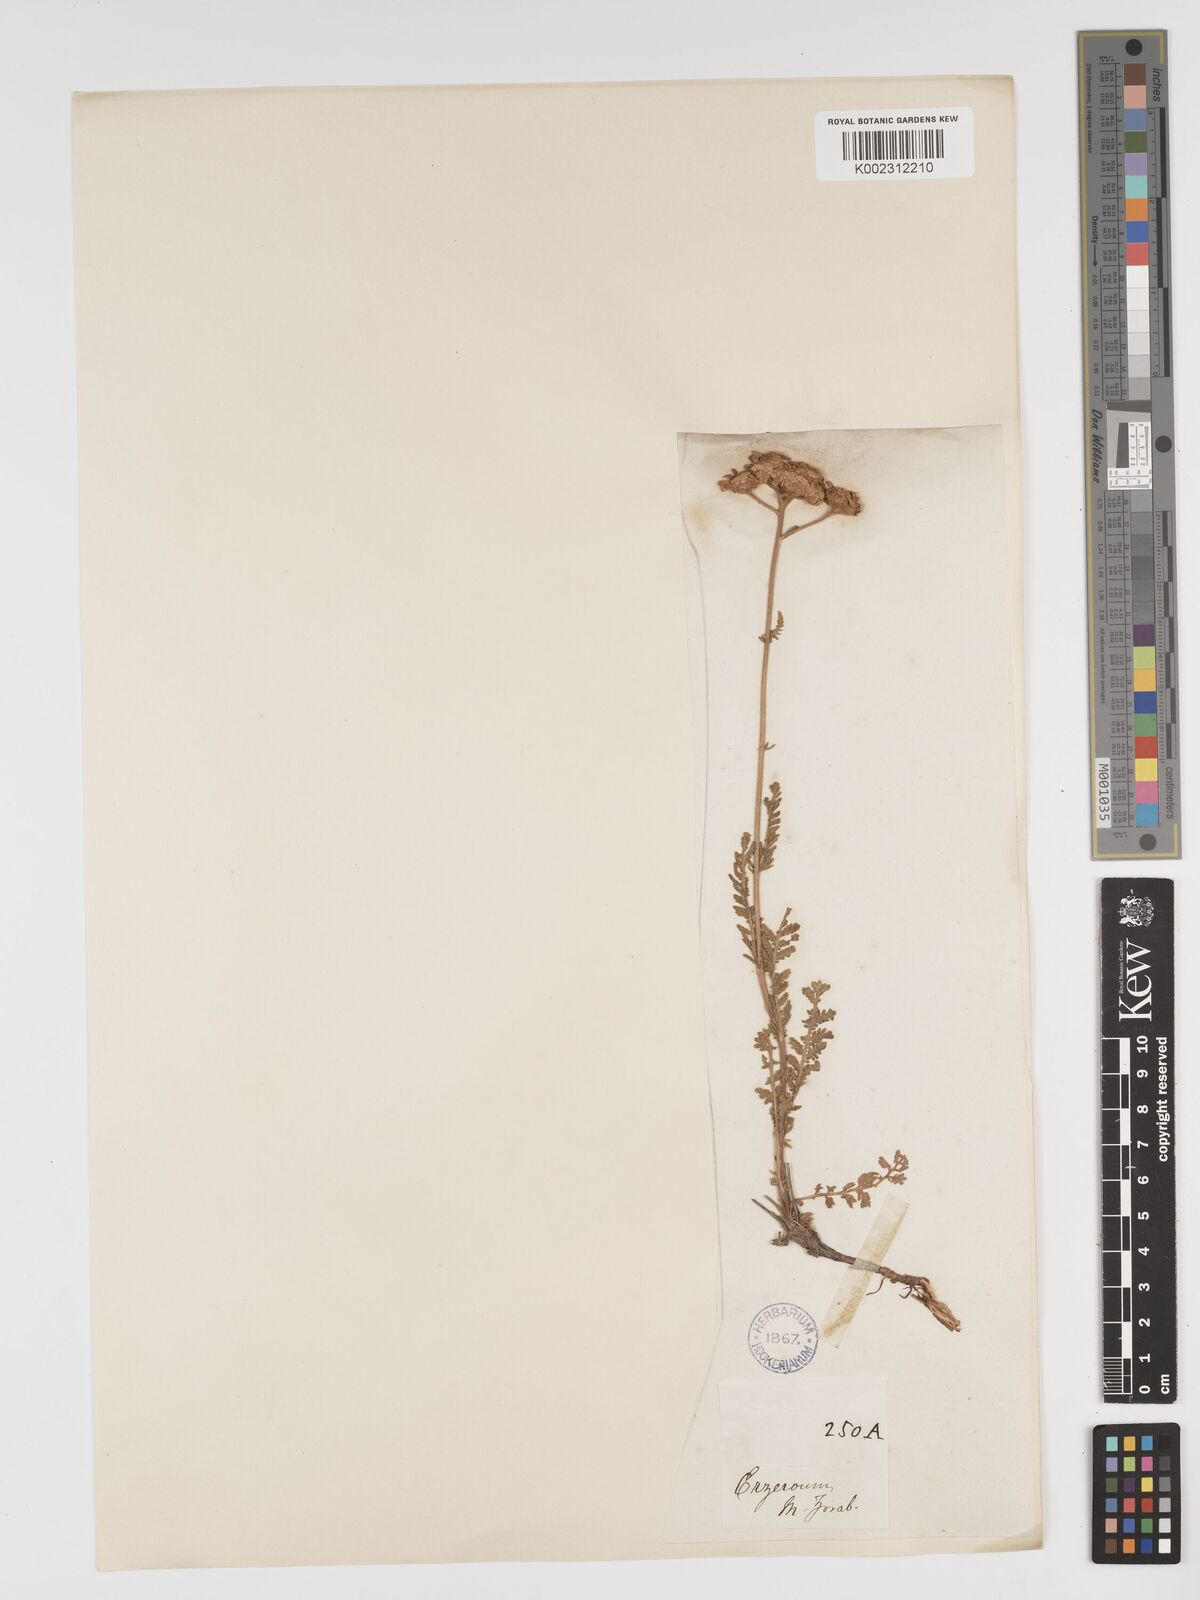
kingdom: Plantae
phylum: Tracheophyta
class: Magnoliopsida
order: Asterales
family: Asteraceae
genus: Tanacetum
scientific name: Tanacetum
